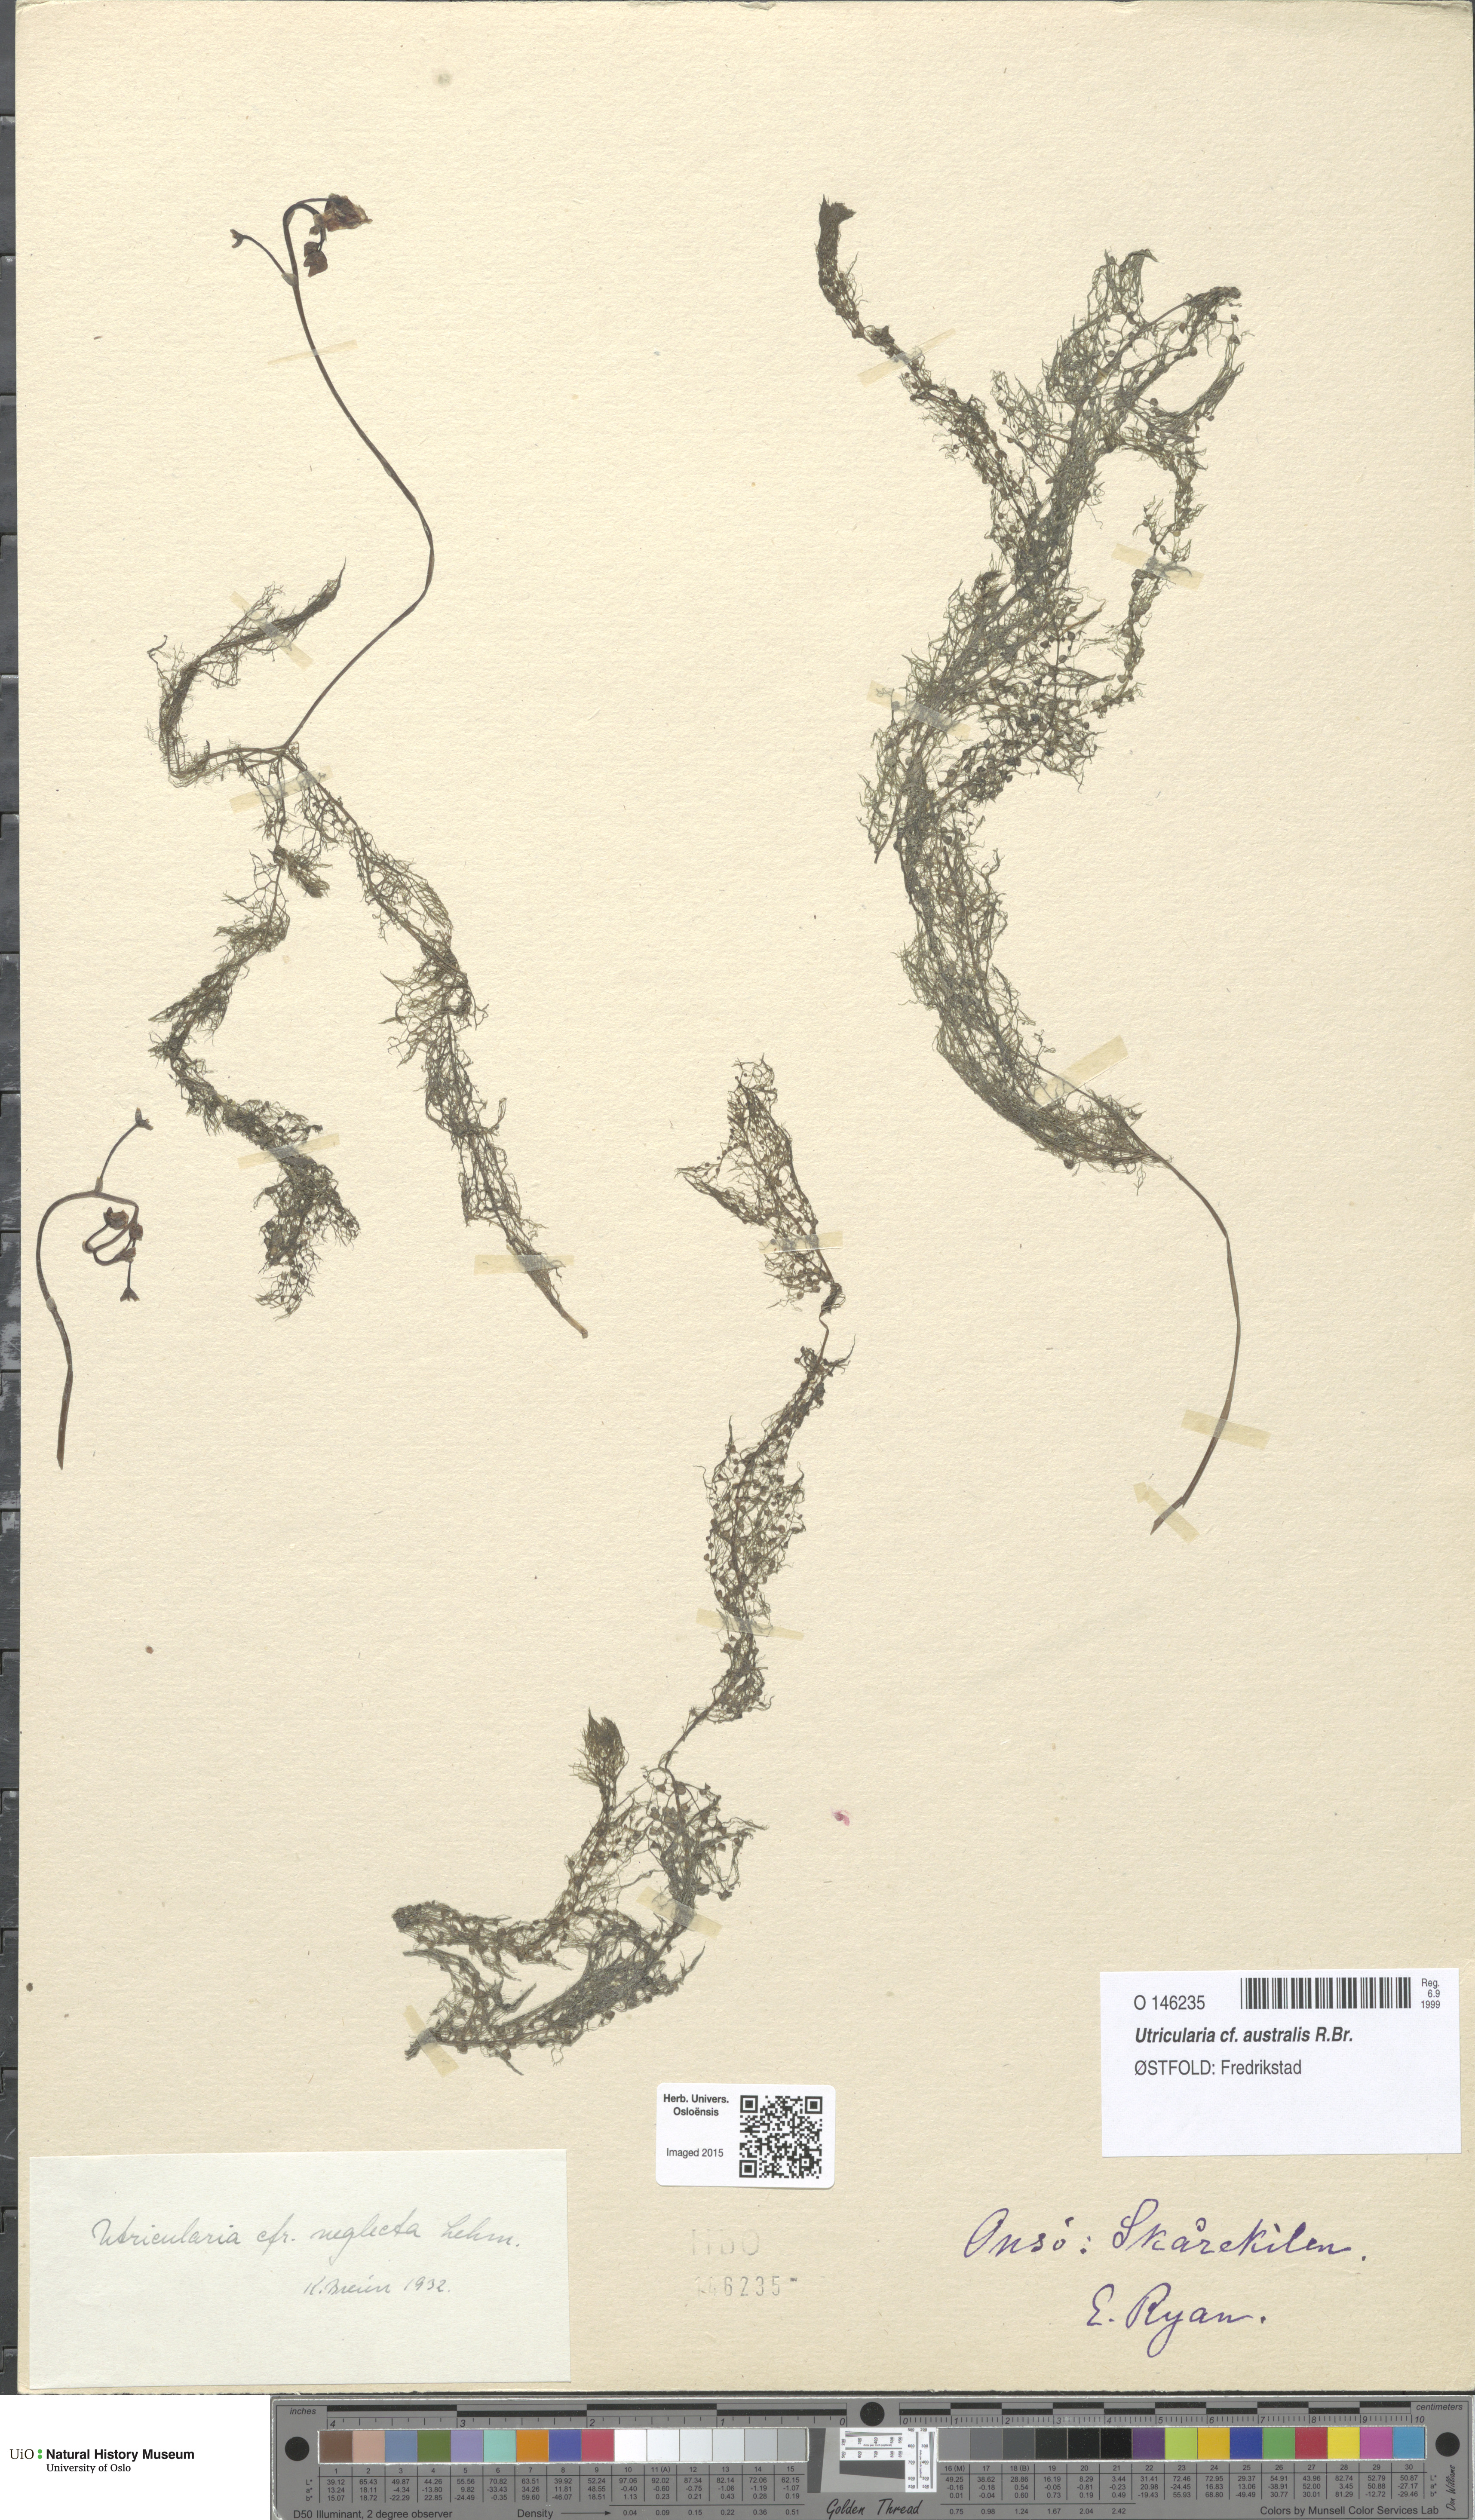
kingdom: Plantae
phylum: Tracheophyta
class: Magnoliopsida
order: Lamiales
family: Lentibulariaceae
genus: Utricularia
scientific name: Utricularia australis
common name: Bladderwort
